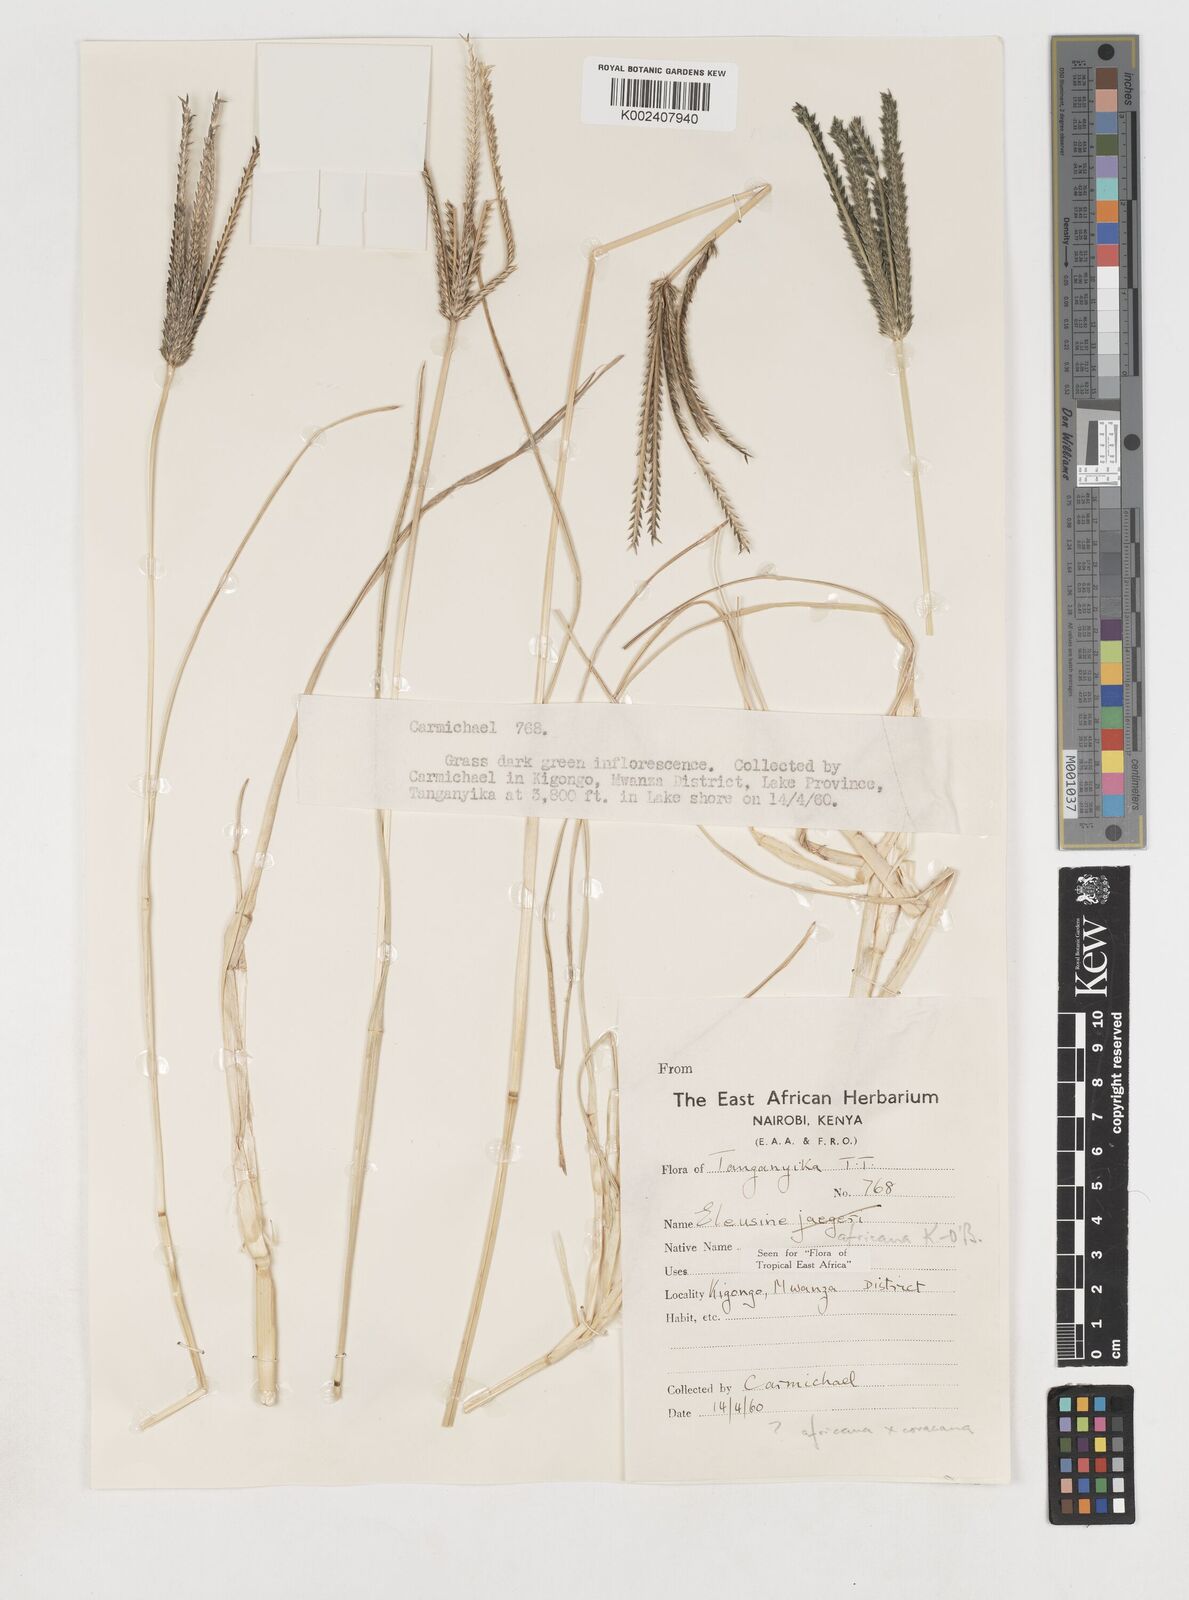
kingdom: Plantae
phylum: Tracheophyta
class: Liliopsida
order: Poales
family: Poaceae
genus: Eleusine
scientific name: Eleusine africana
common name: Wild african finger millet
